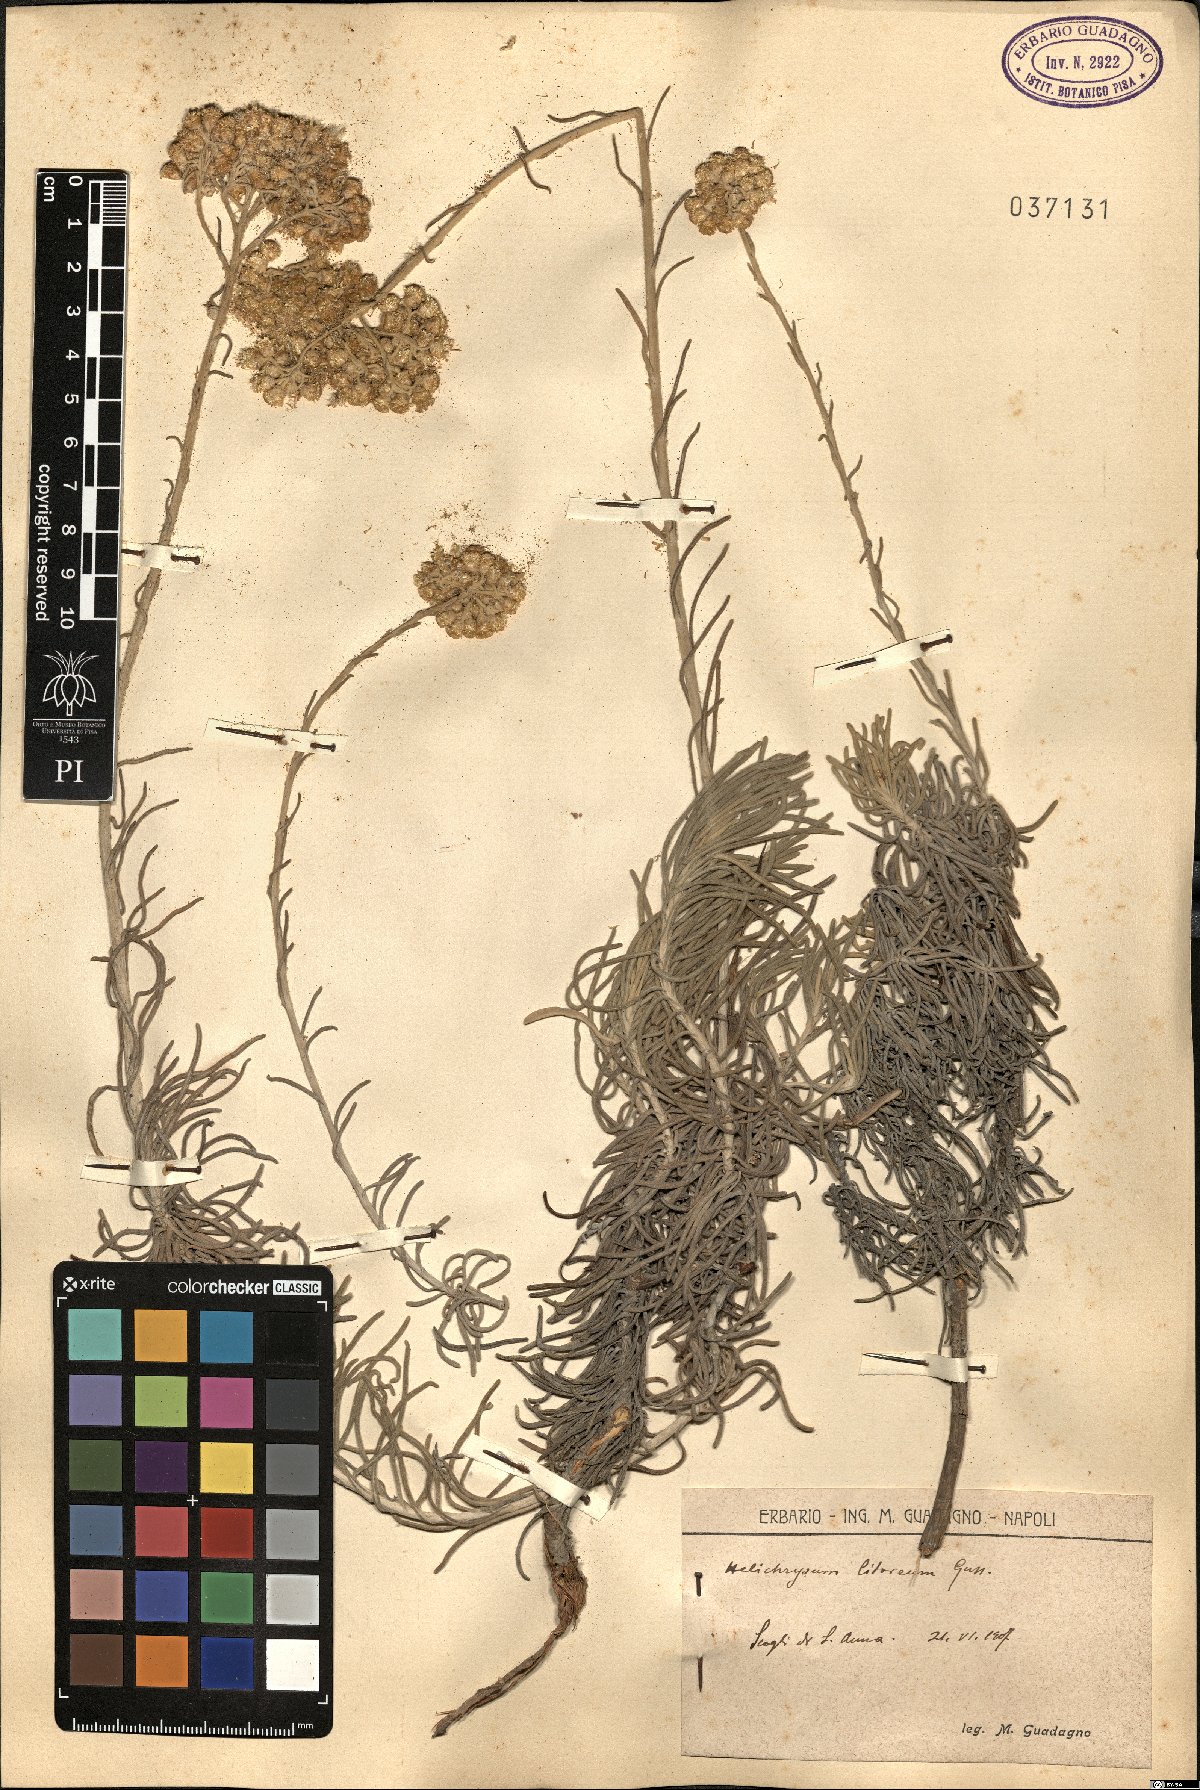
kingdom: Plantae
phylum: Tracheophyta
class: Magnoliopsida
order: Asterales
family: Asteraceae
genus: Helichrysum
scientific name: Helichrysum litoreum
